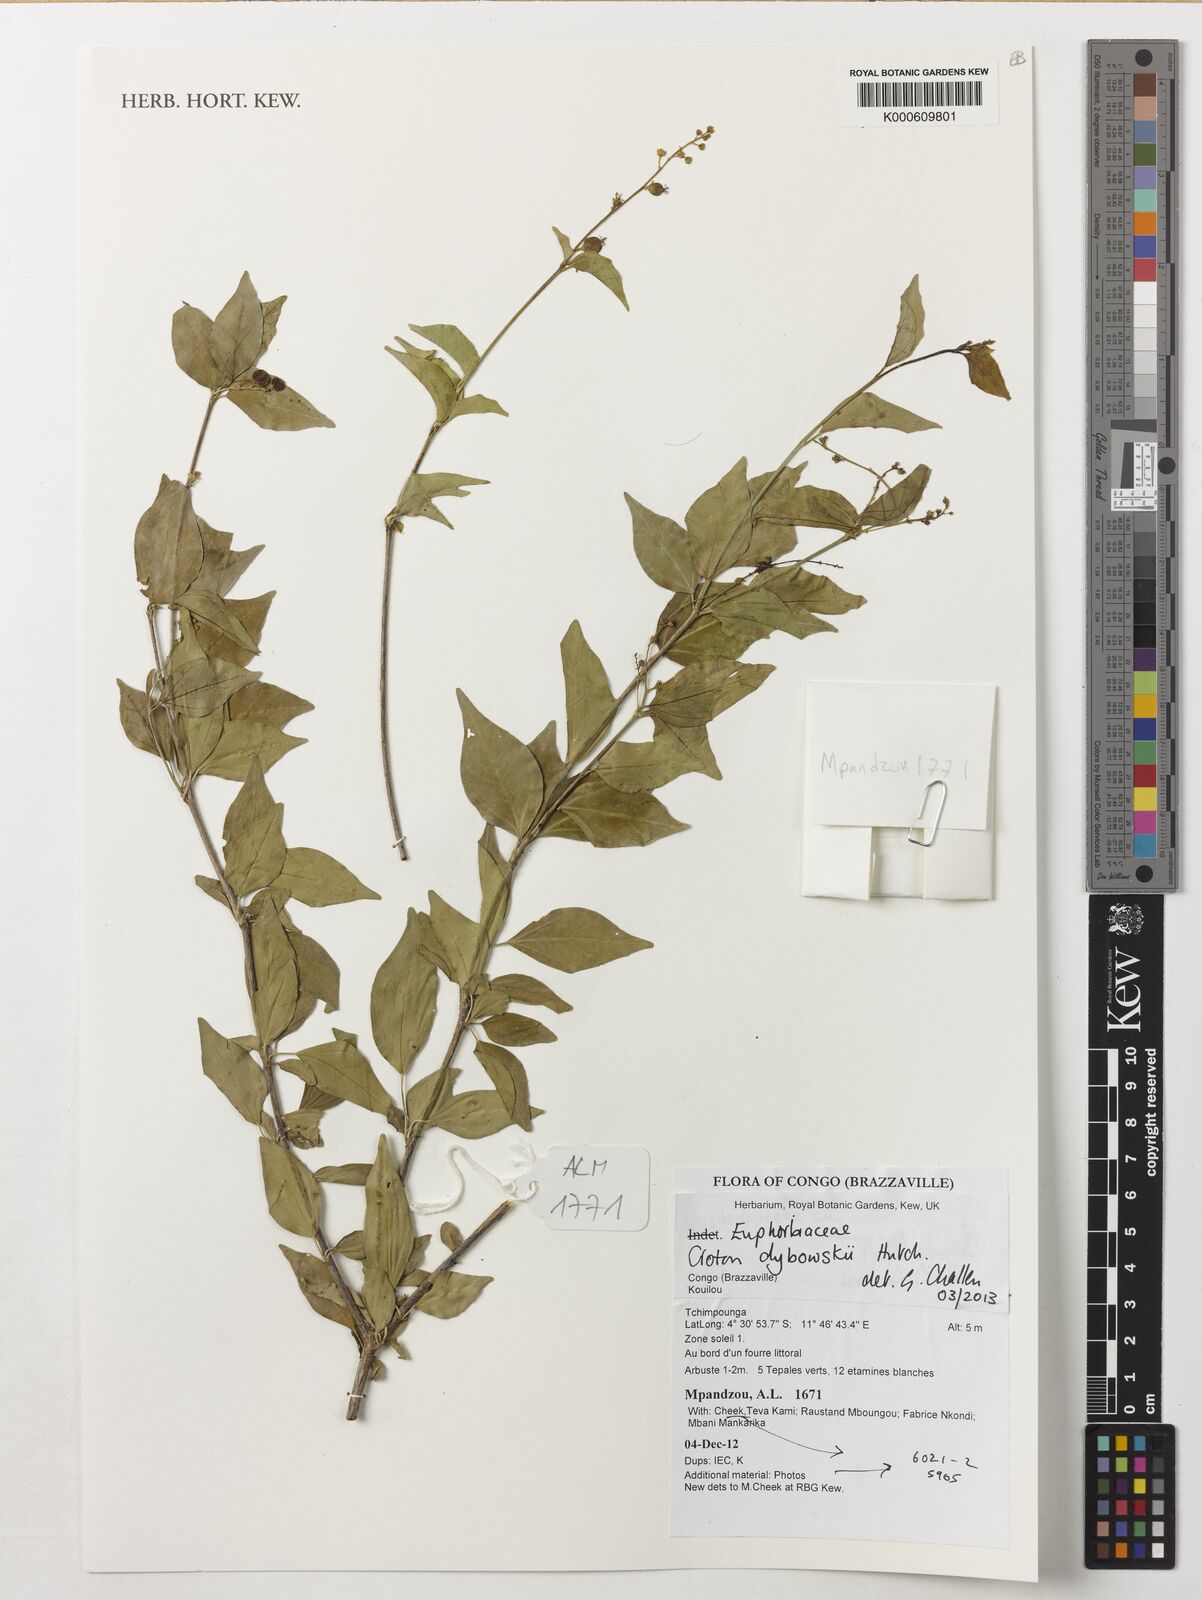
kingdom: Plantae
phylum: Tracheophyta
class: Magnoliopsida
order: Malpighiales
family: Euphorbiaceae
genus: Croton
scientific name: Croton dybowskii
